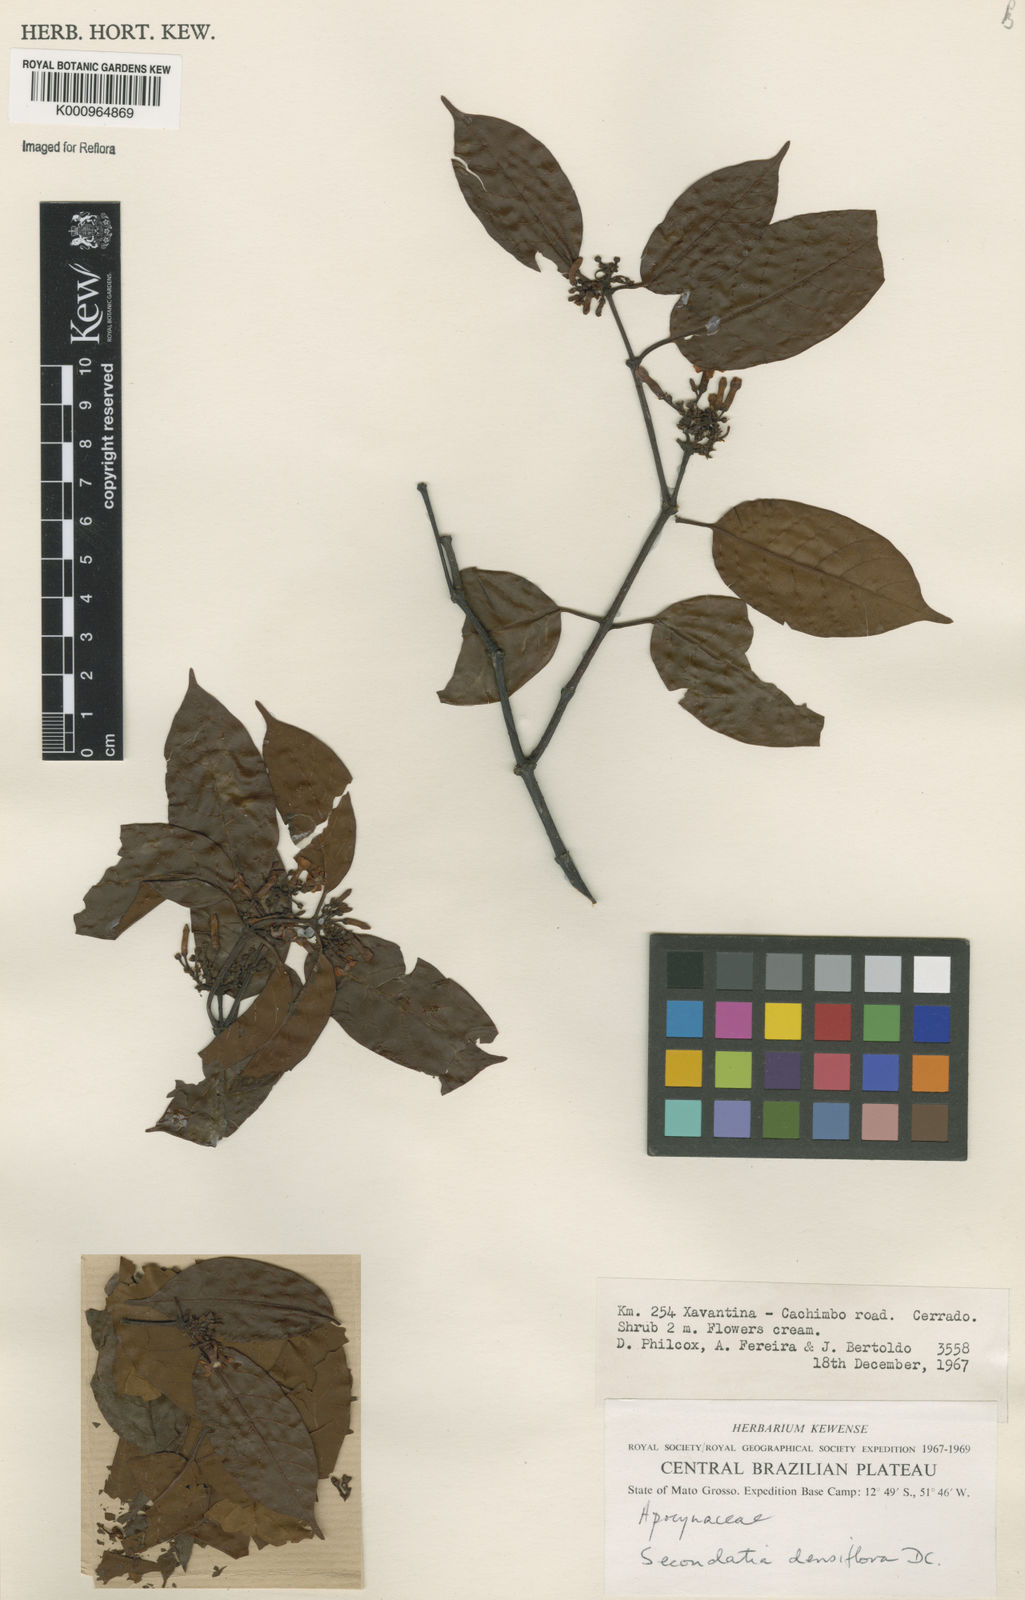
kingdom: Plantae
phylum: Tracheophyta
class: Magnoliopsida
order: Gentianales
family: Apocynaceae
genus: Secondatia
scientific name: Secondatia densiflora
